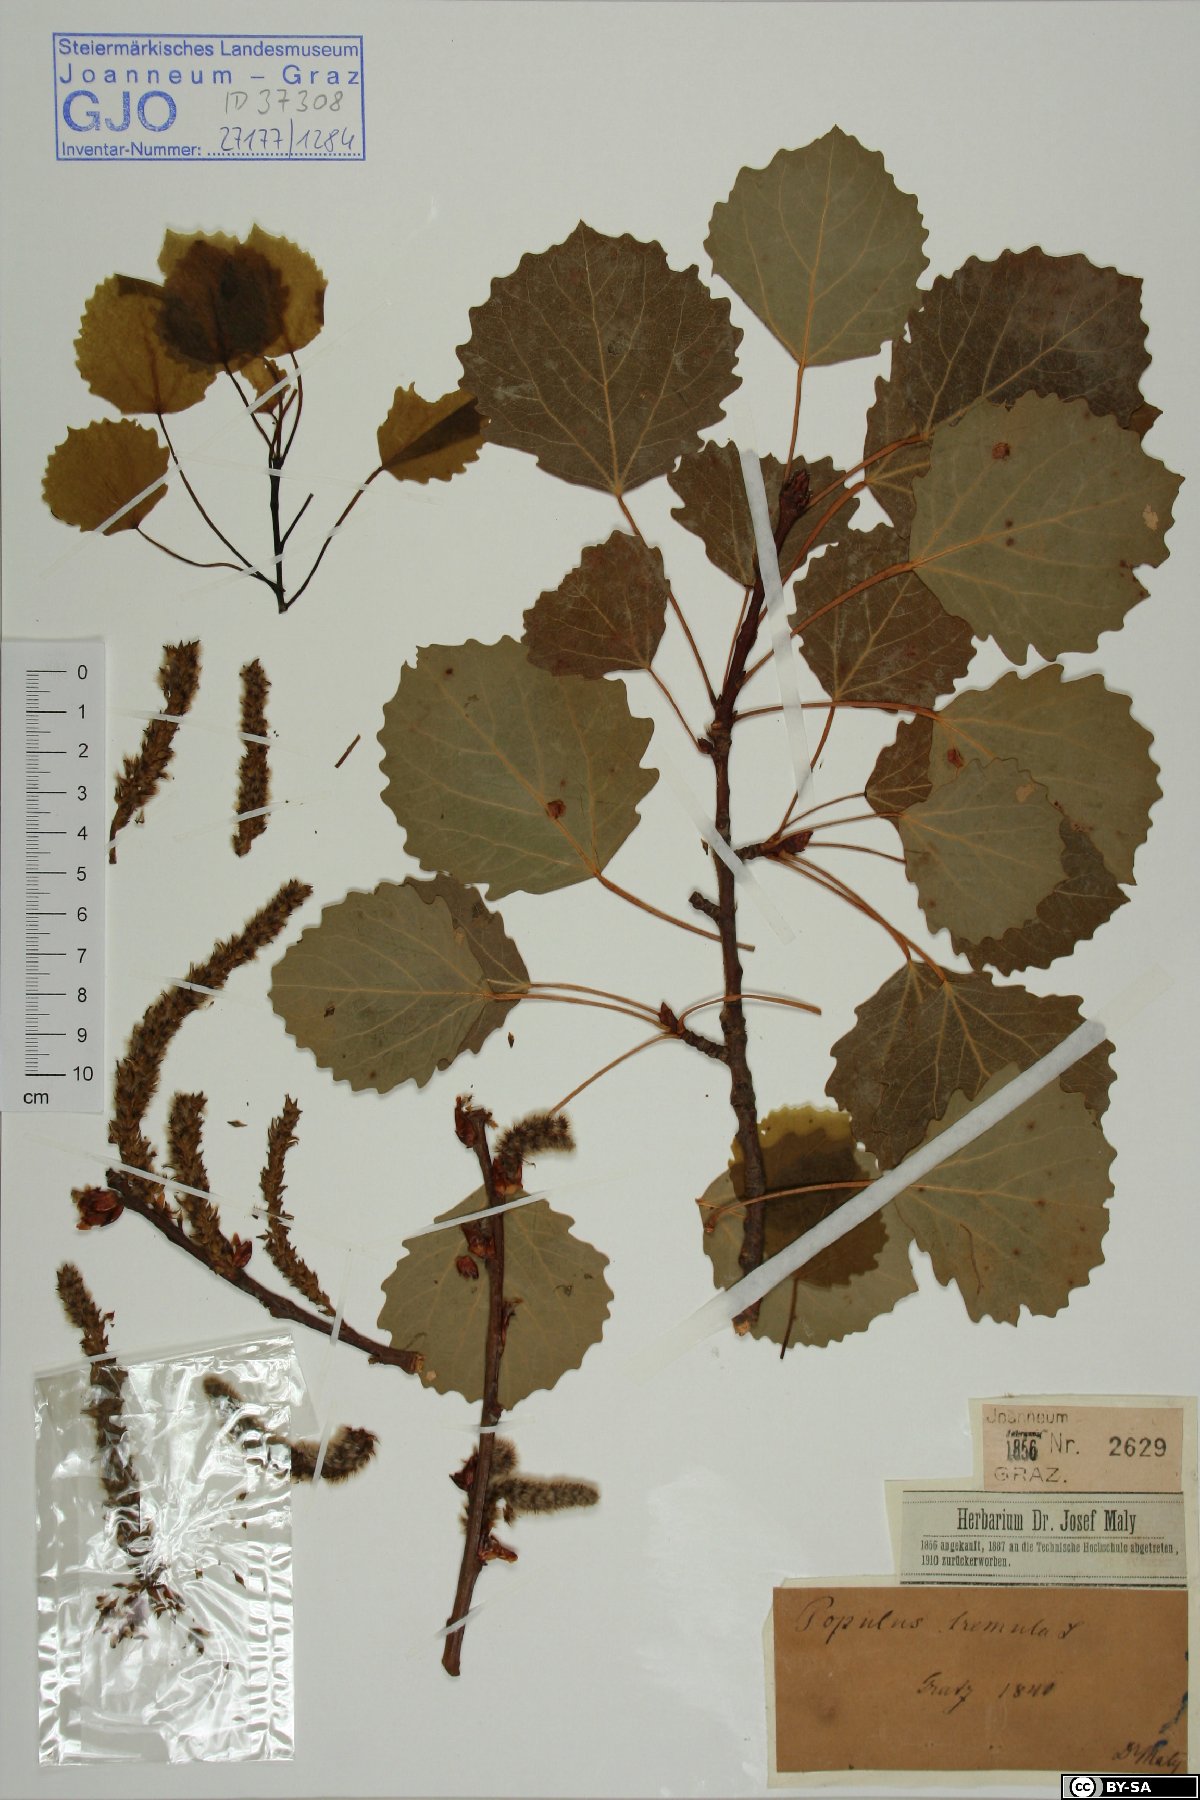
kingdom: Plantae
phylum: Tracheophyta
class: Magnoliopsida
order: Malpighiales
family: Salicaceae
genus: Populus
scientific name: Populus tremula
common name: European aspen
